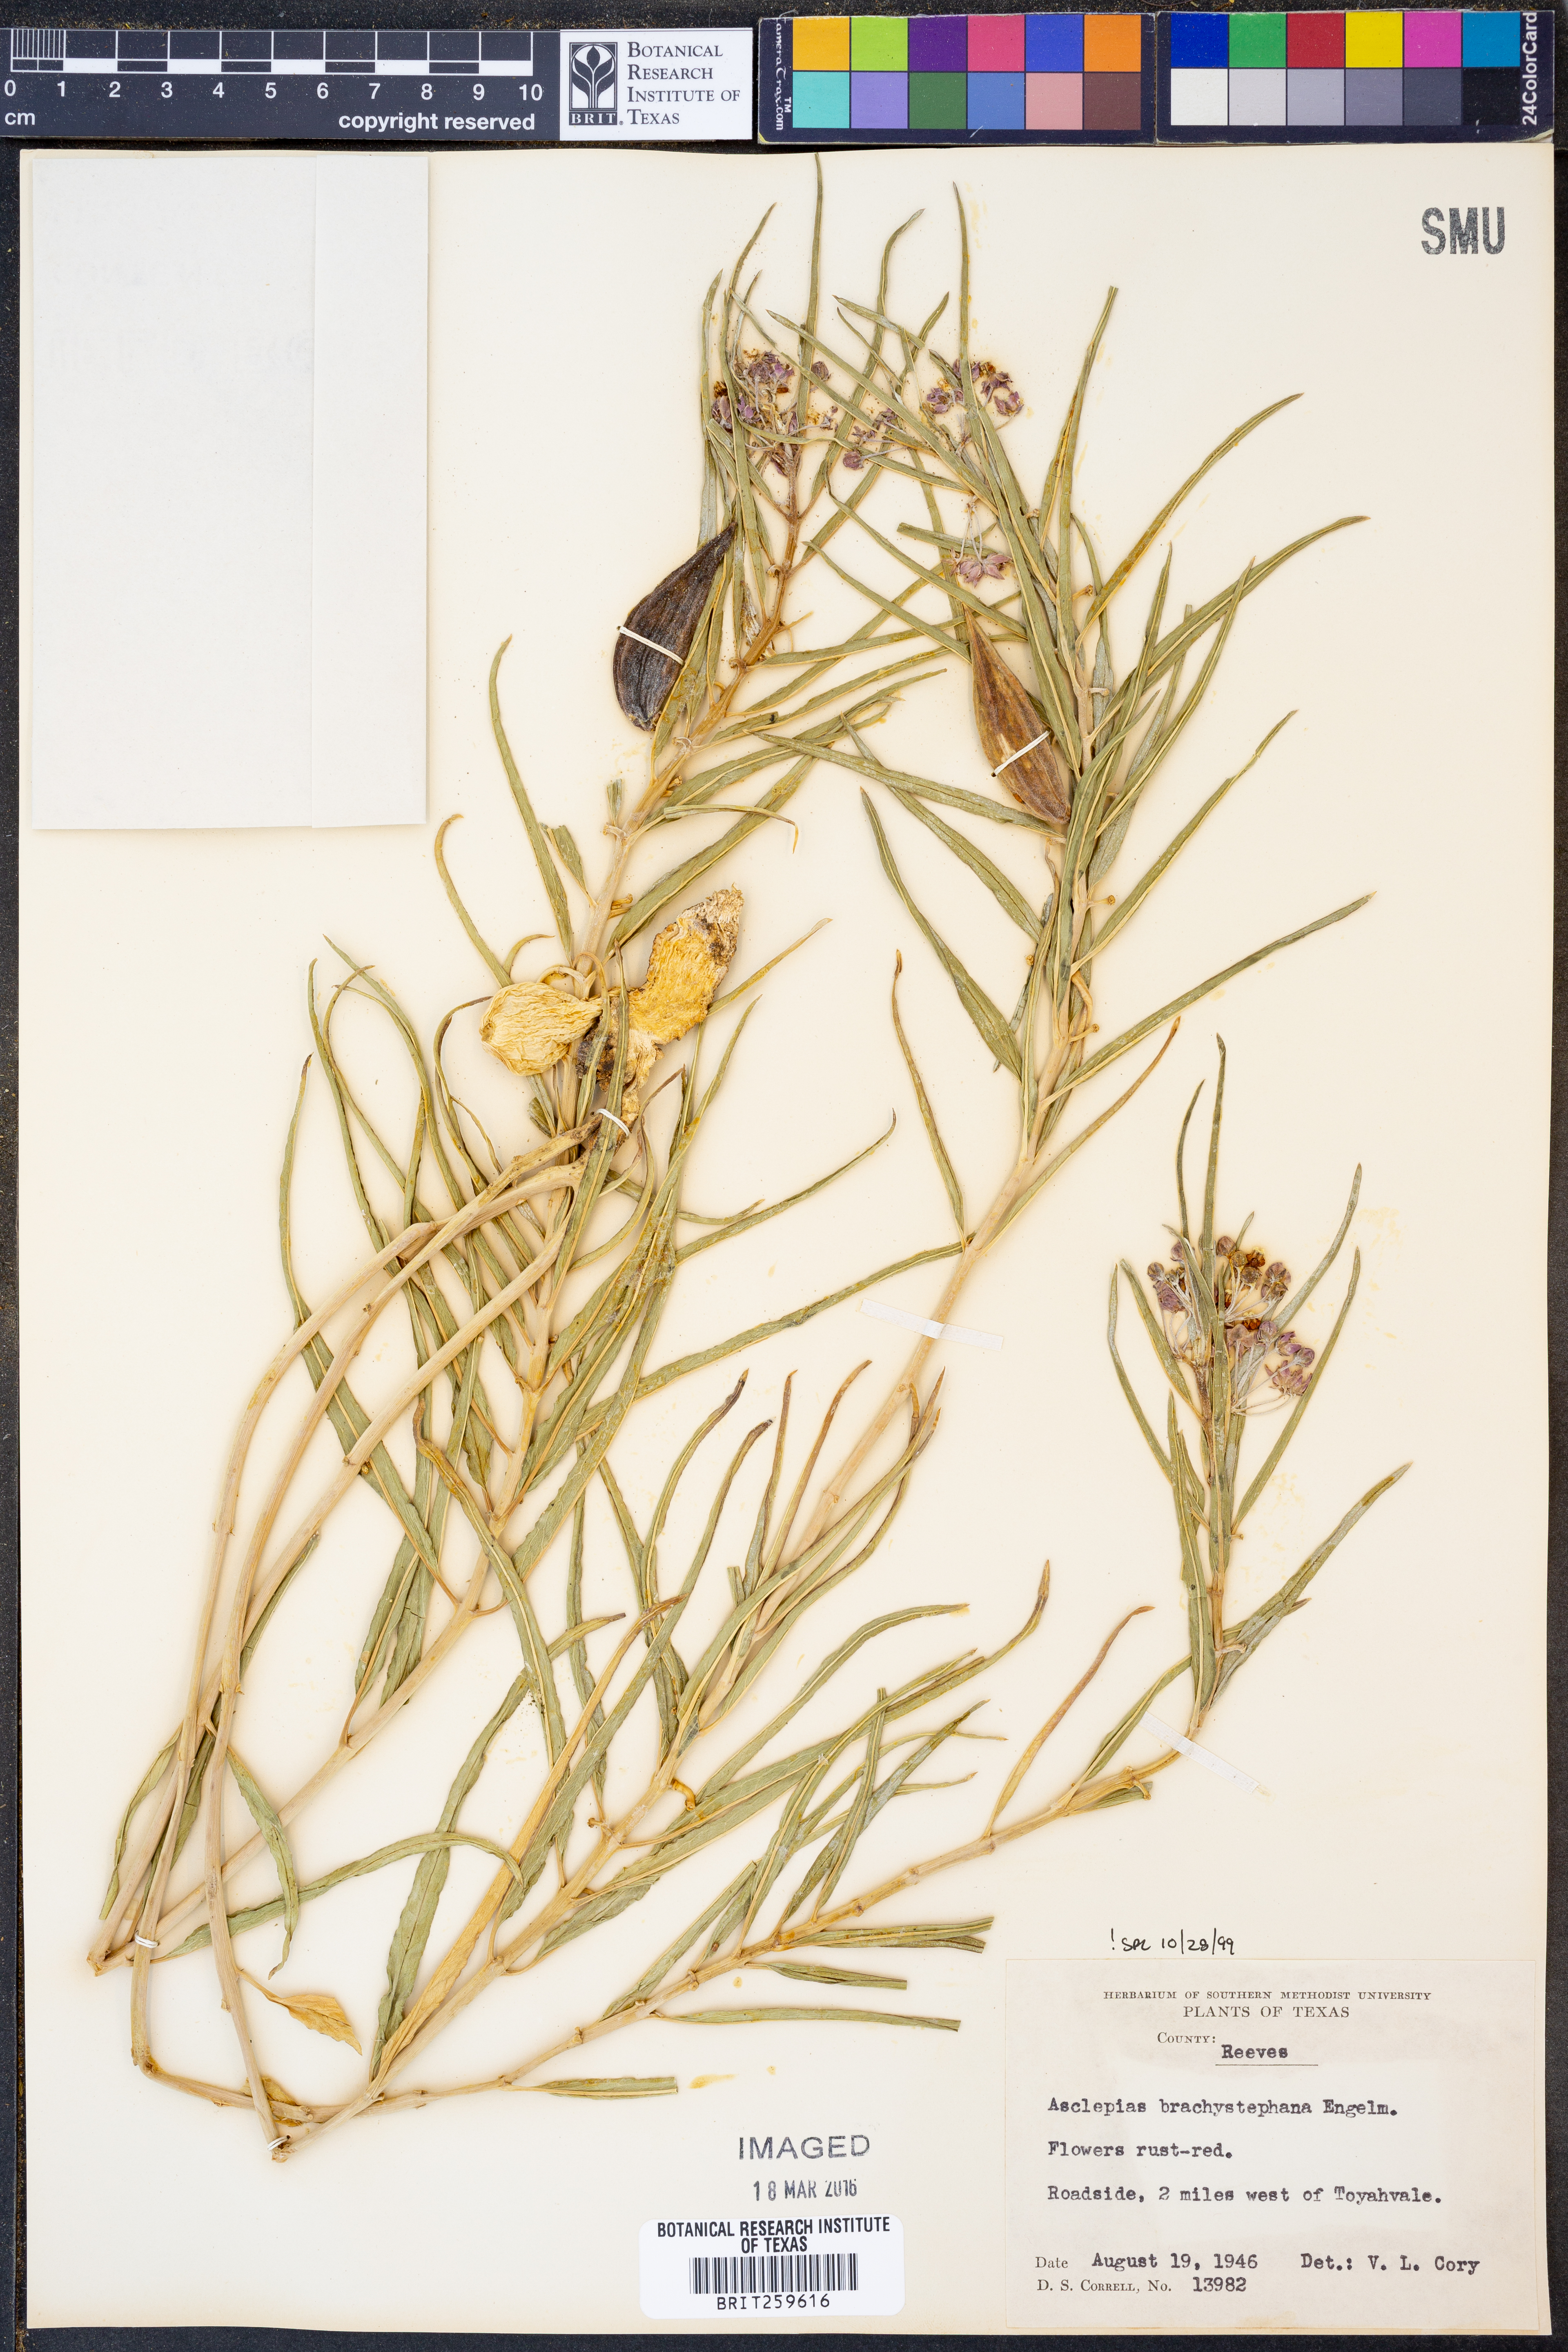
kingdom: Plantae
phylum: Tracheophyta
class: Magnoliopsida
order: Gentianales
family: Apocynaceae
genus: Asclepias
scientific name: Asclepias brachystephana
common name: Shortcrown milkweed
